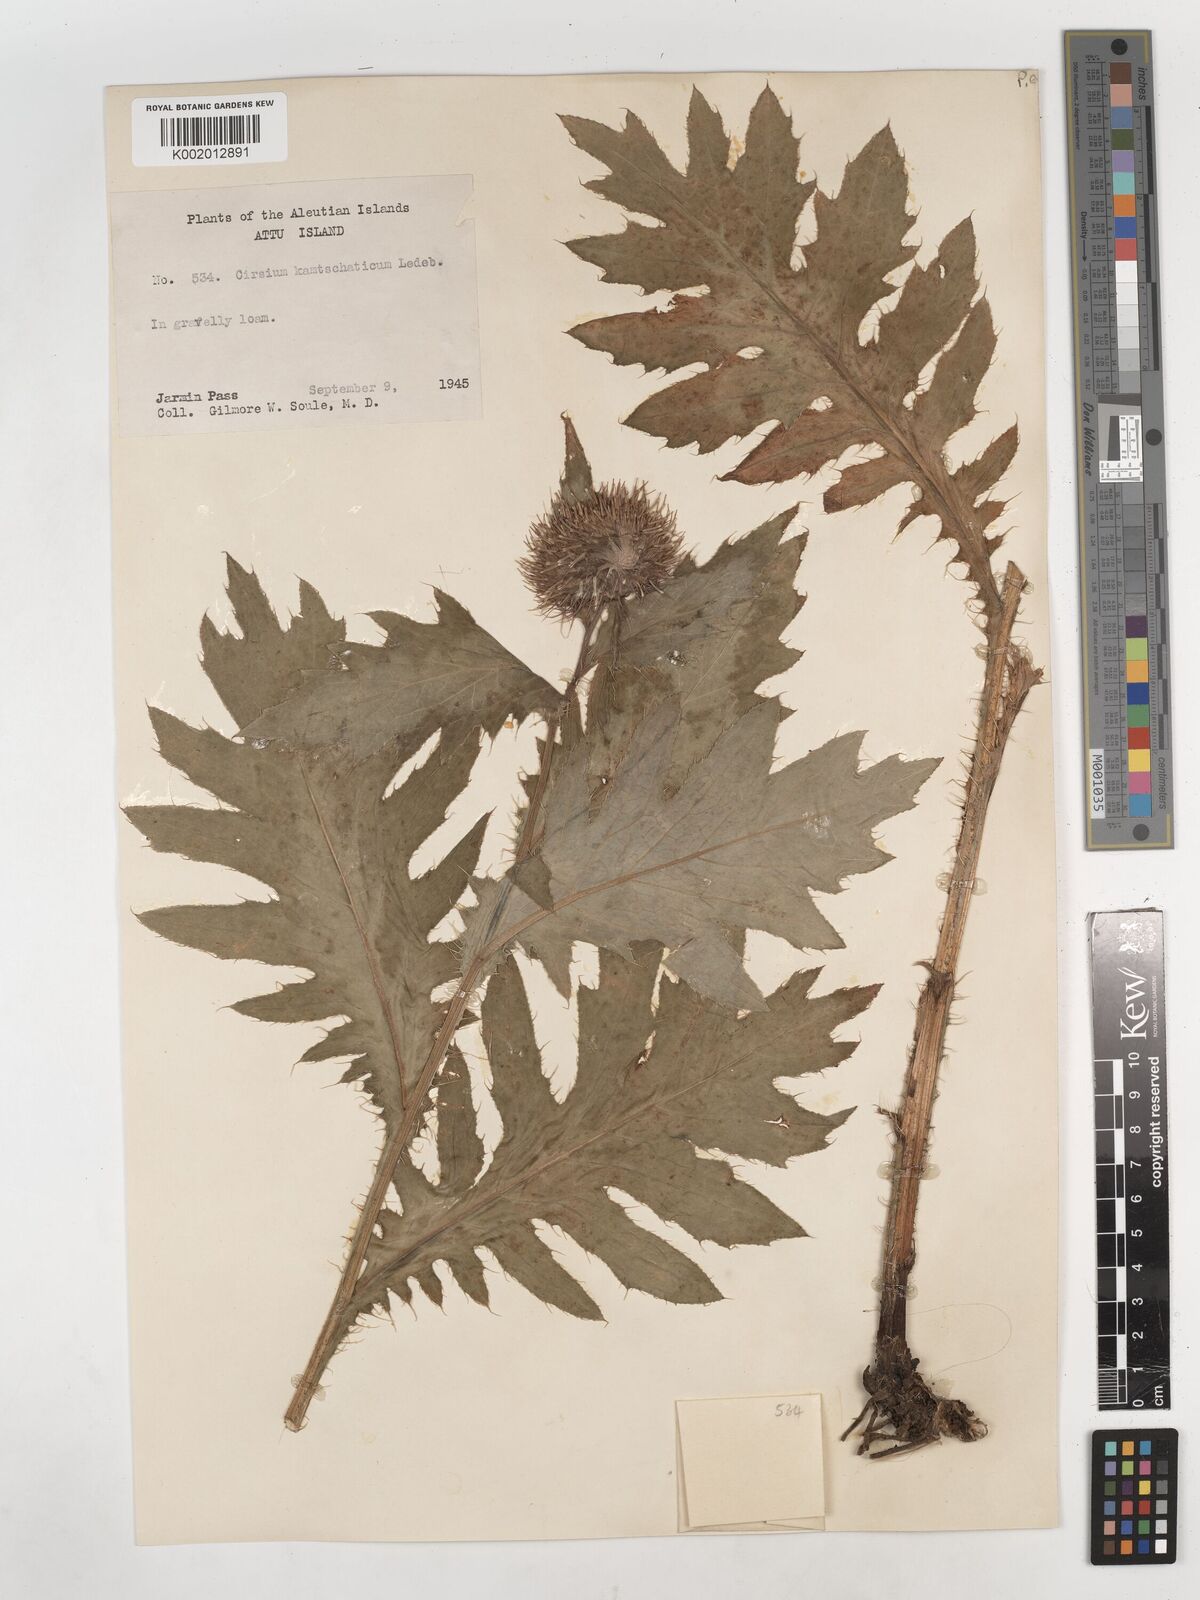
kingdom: Plantae
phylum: Tracheophyta
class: Magnoliopsida
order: Asterales
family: Asteraceae
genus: Cirsium
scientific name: Cirsium kamtschaticum
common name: Kamchatka thistle
